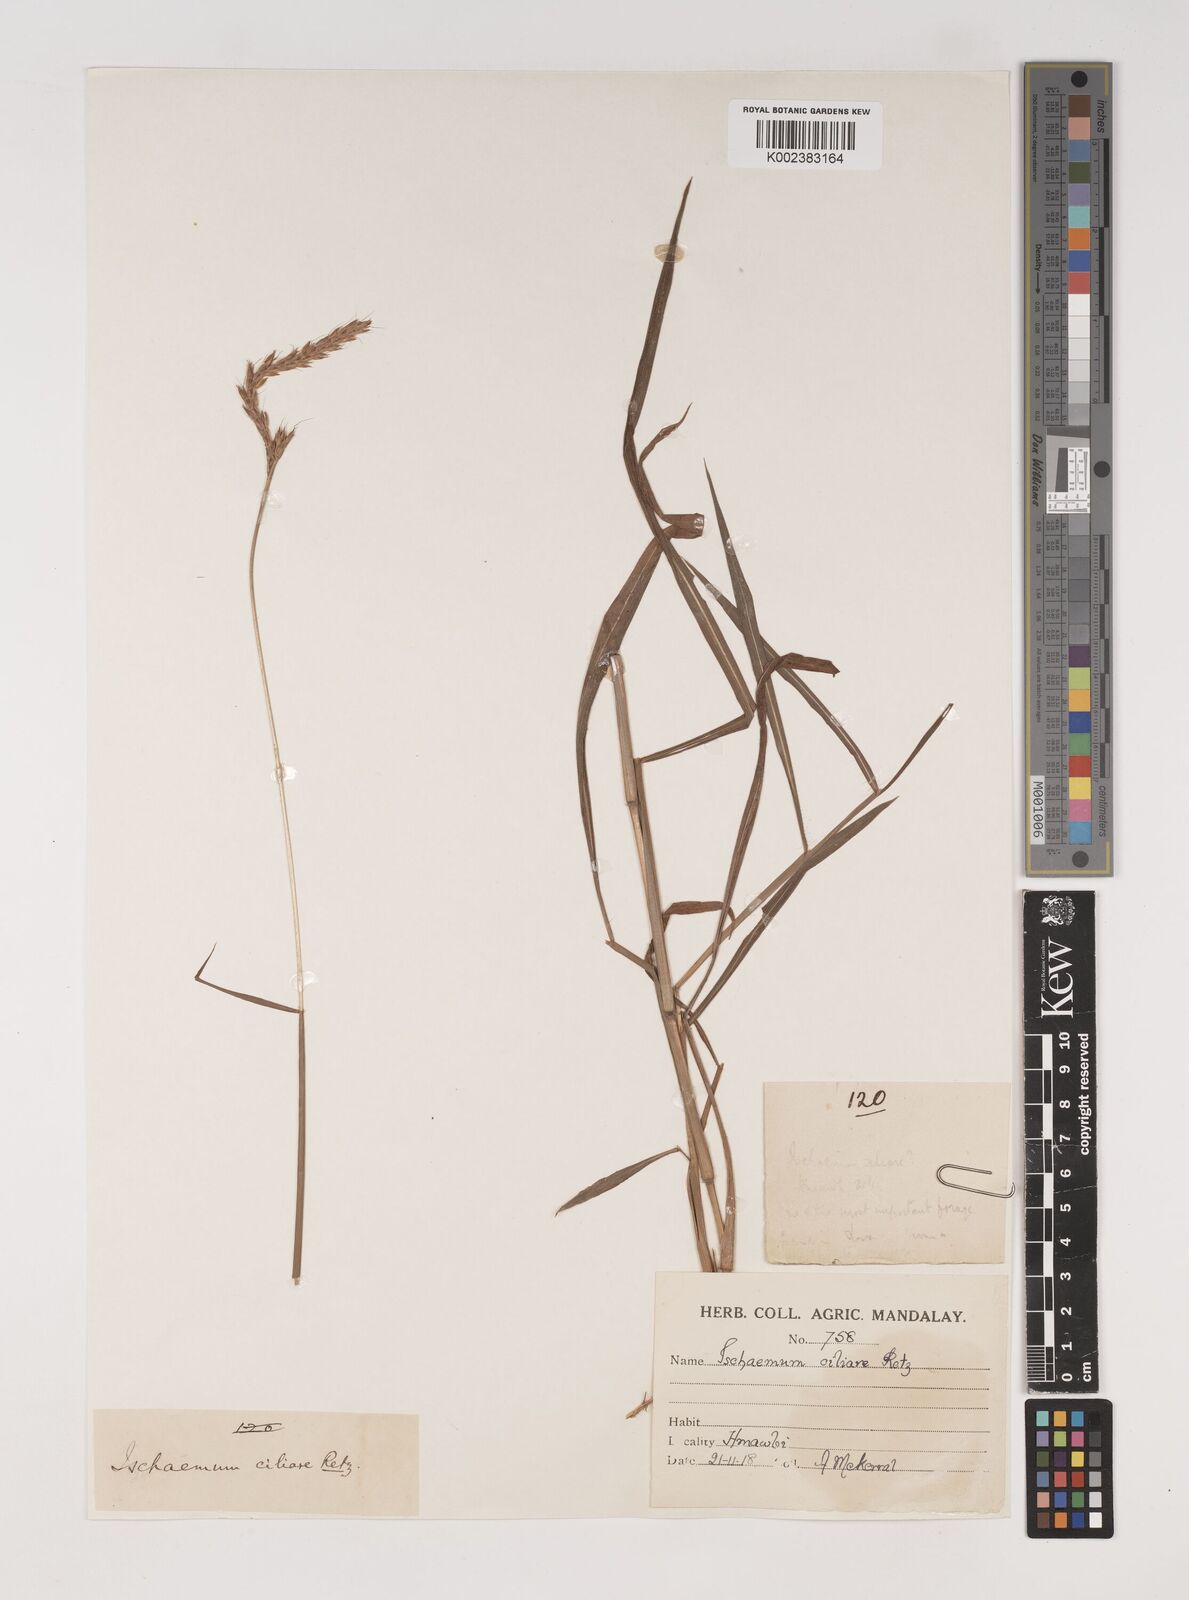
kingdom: Plantae
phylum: Tracheophyta
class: Liliopsida
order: Poales
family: Poaceae
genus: Ischaemum
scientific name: Ischaemum semisagittatum
